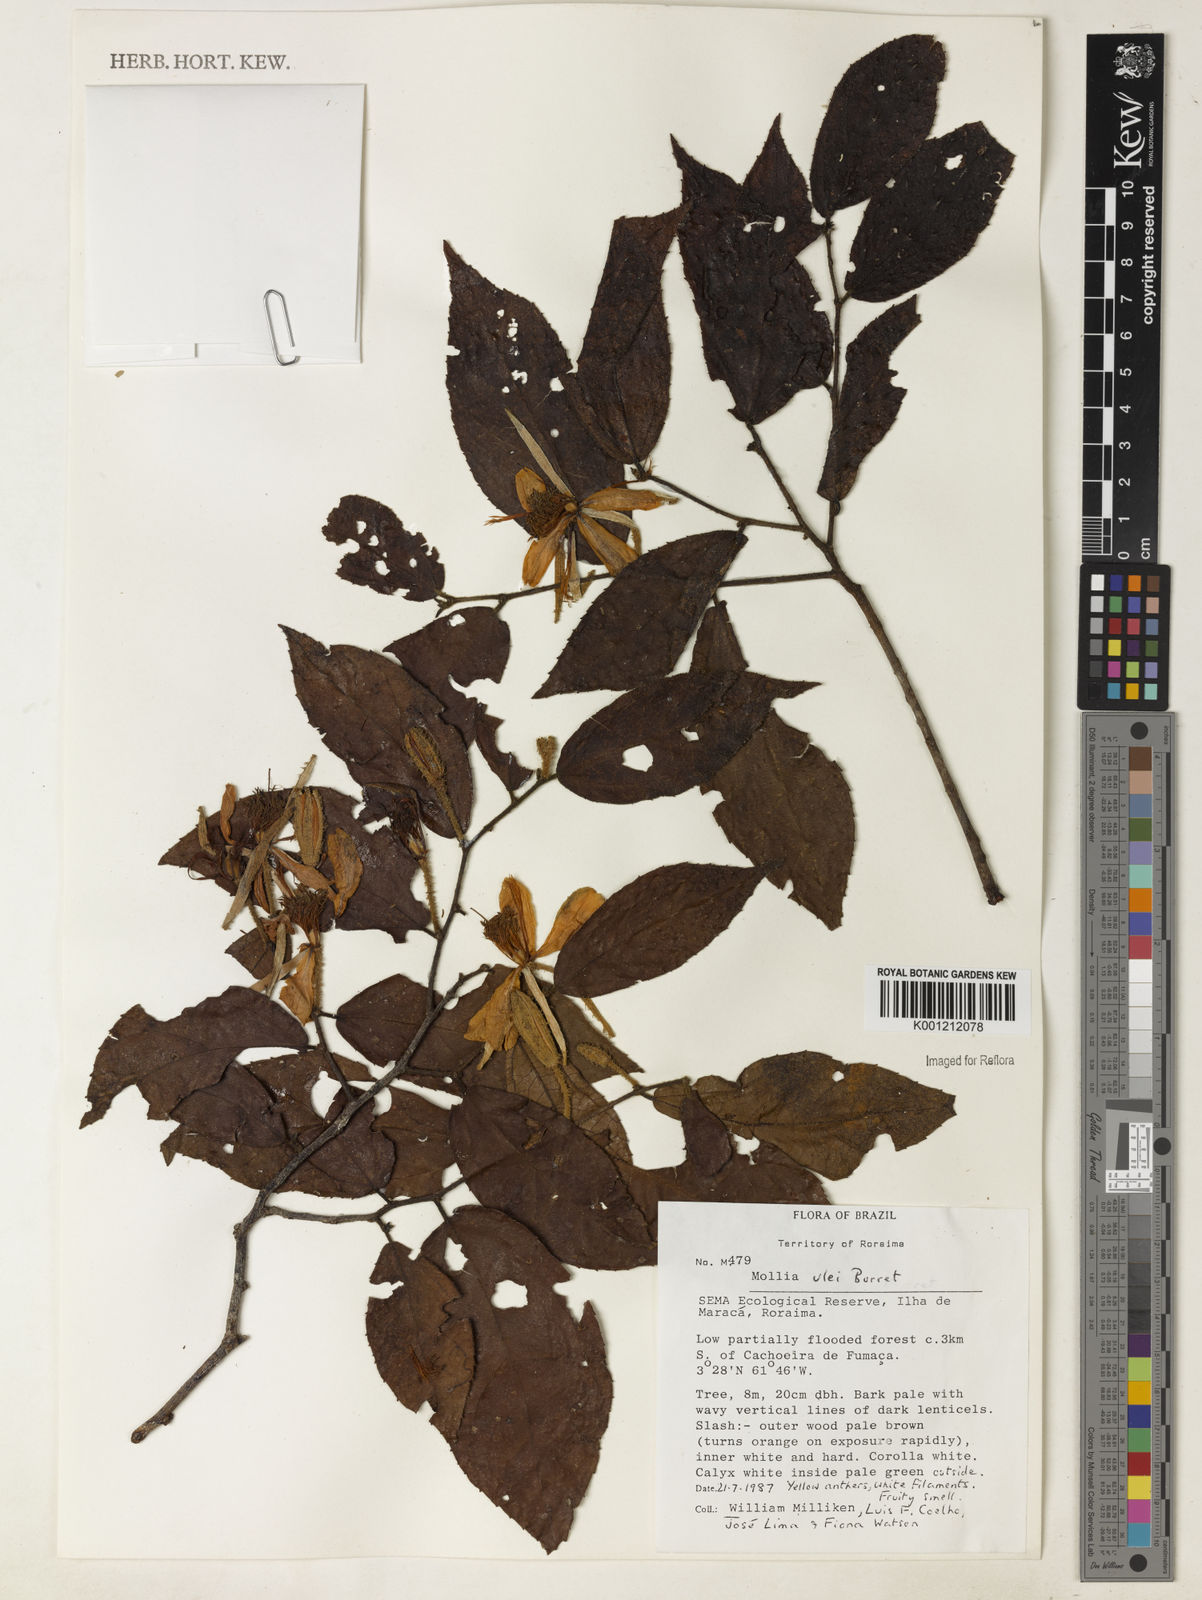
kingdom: Plantae
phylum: Tracheophyta
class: Magnoliopsida
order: Malvales
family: Malvaceae
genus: Mollia
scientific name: Mollia ulei
